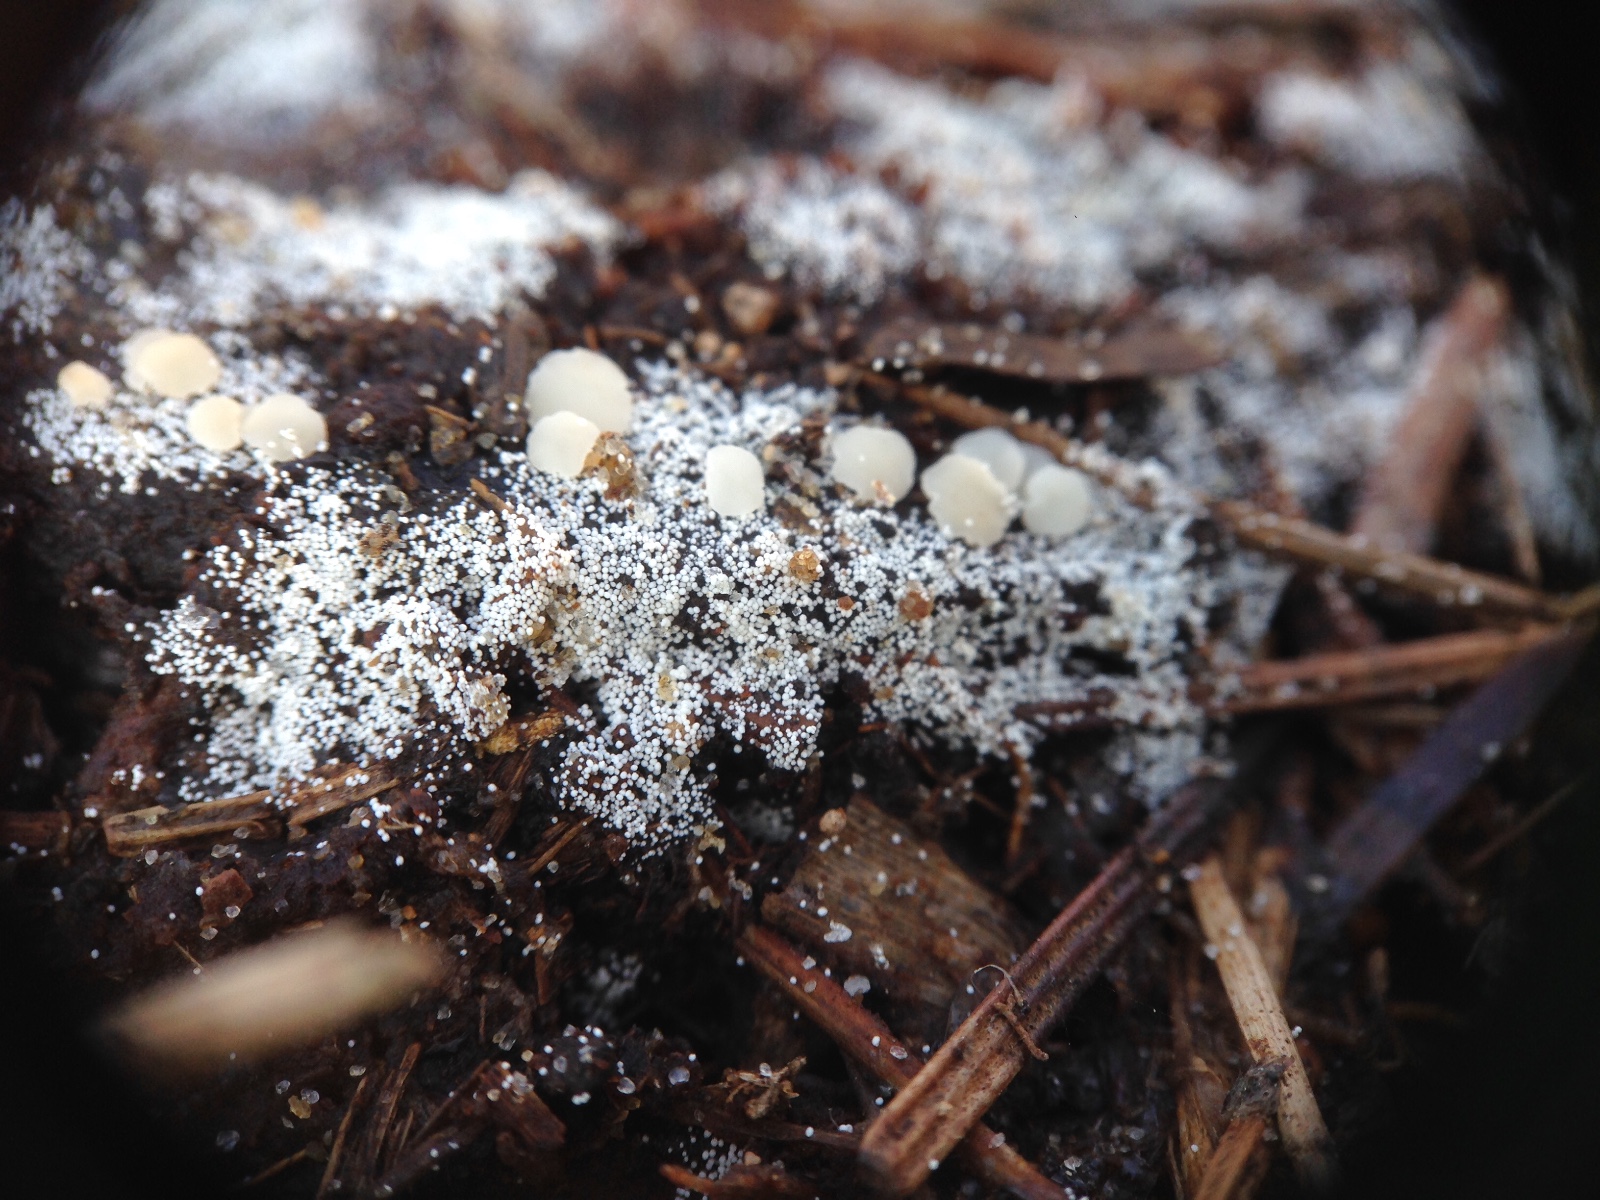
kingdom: Fungi
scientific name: Fungi
